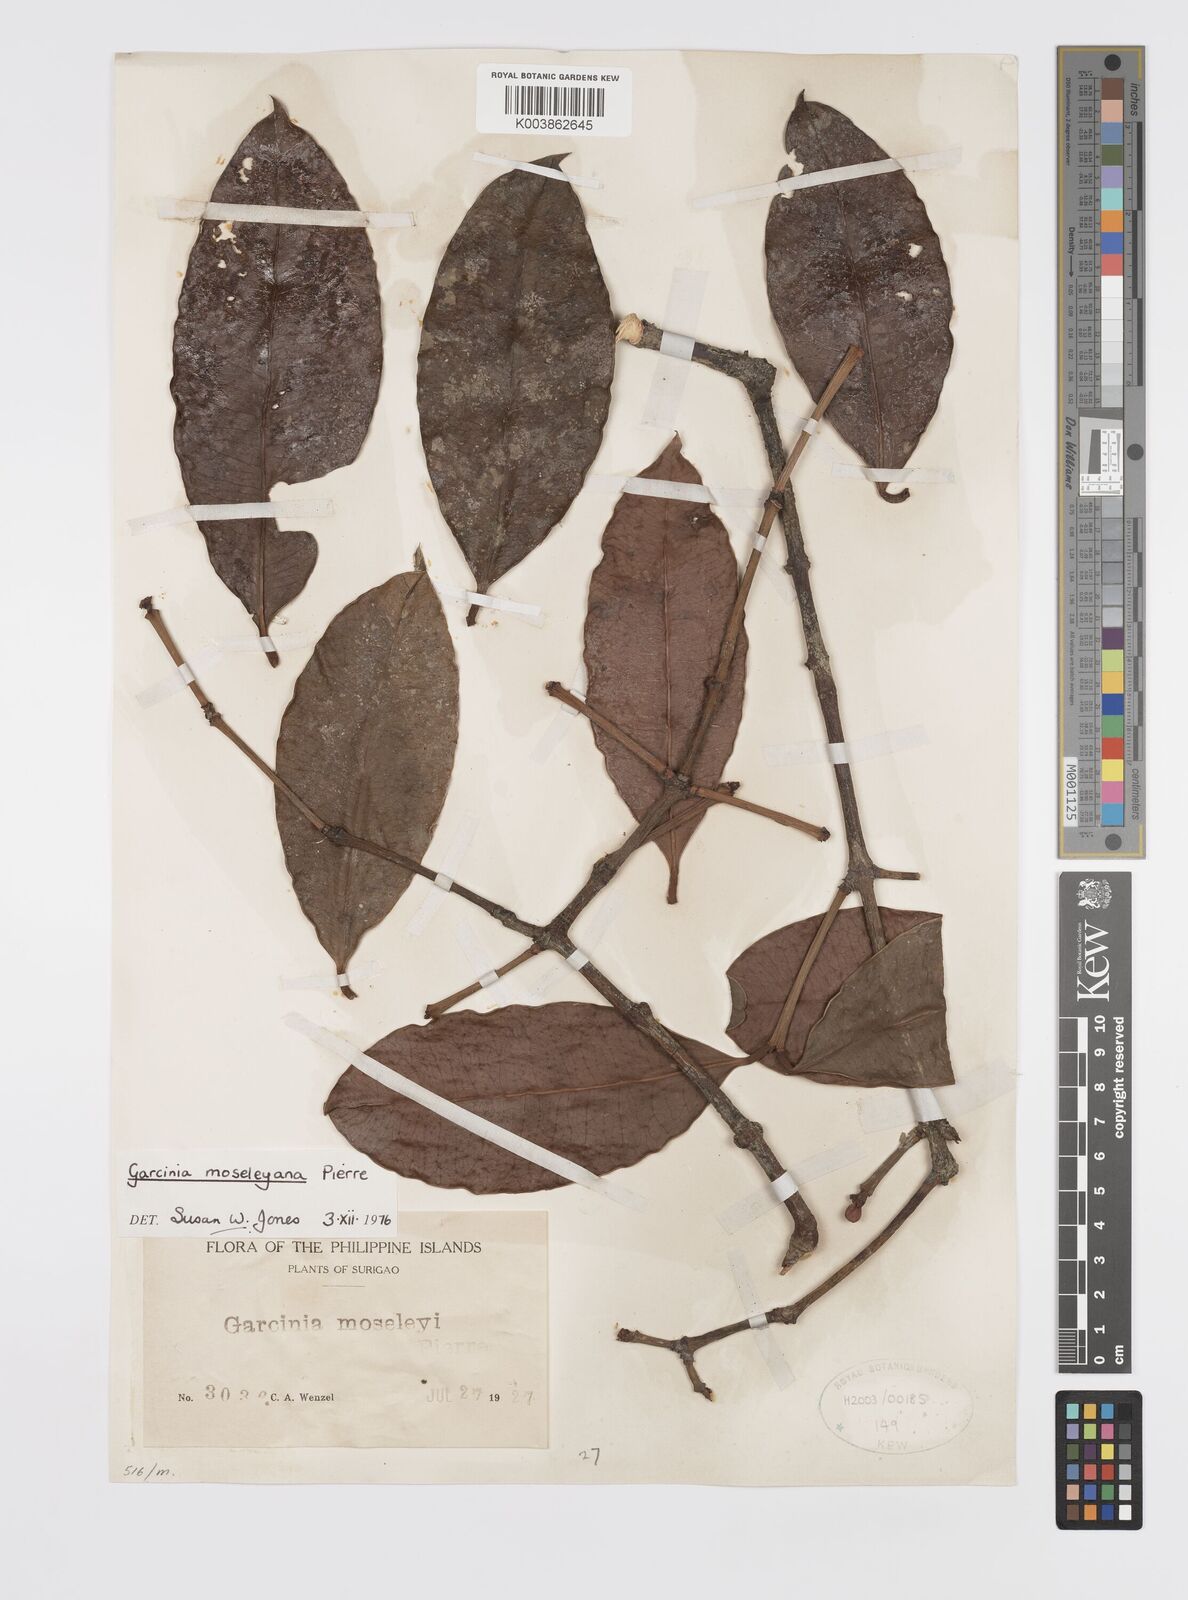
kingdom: Plantae
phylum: Tracheophyta
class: Magnoliopsida
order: Malpighiales
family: Clusiaceae
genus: Garcinia
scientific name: Garcinia
